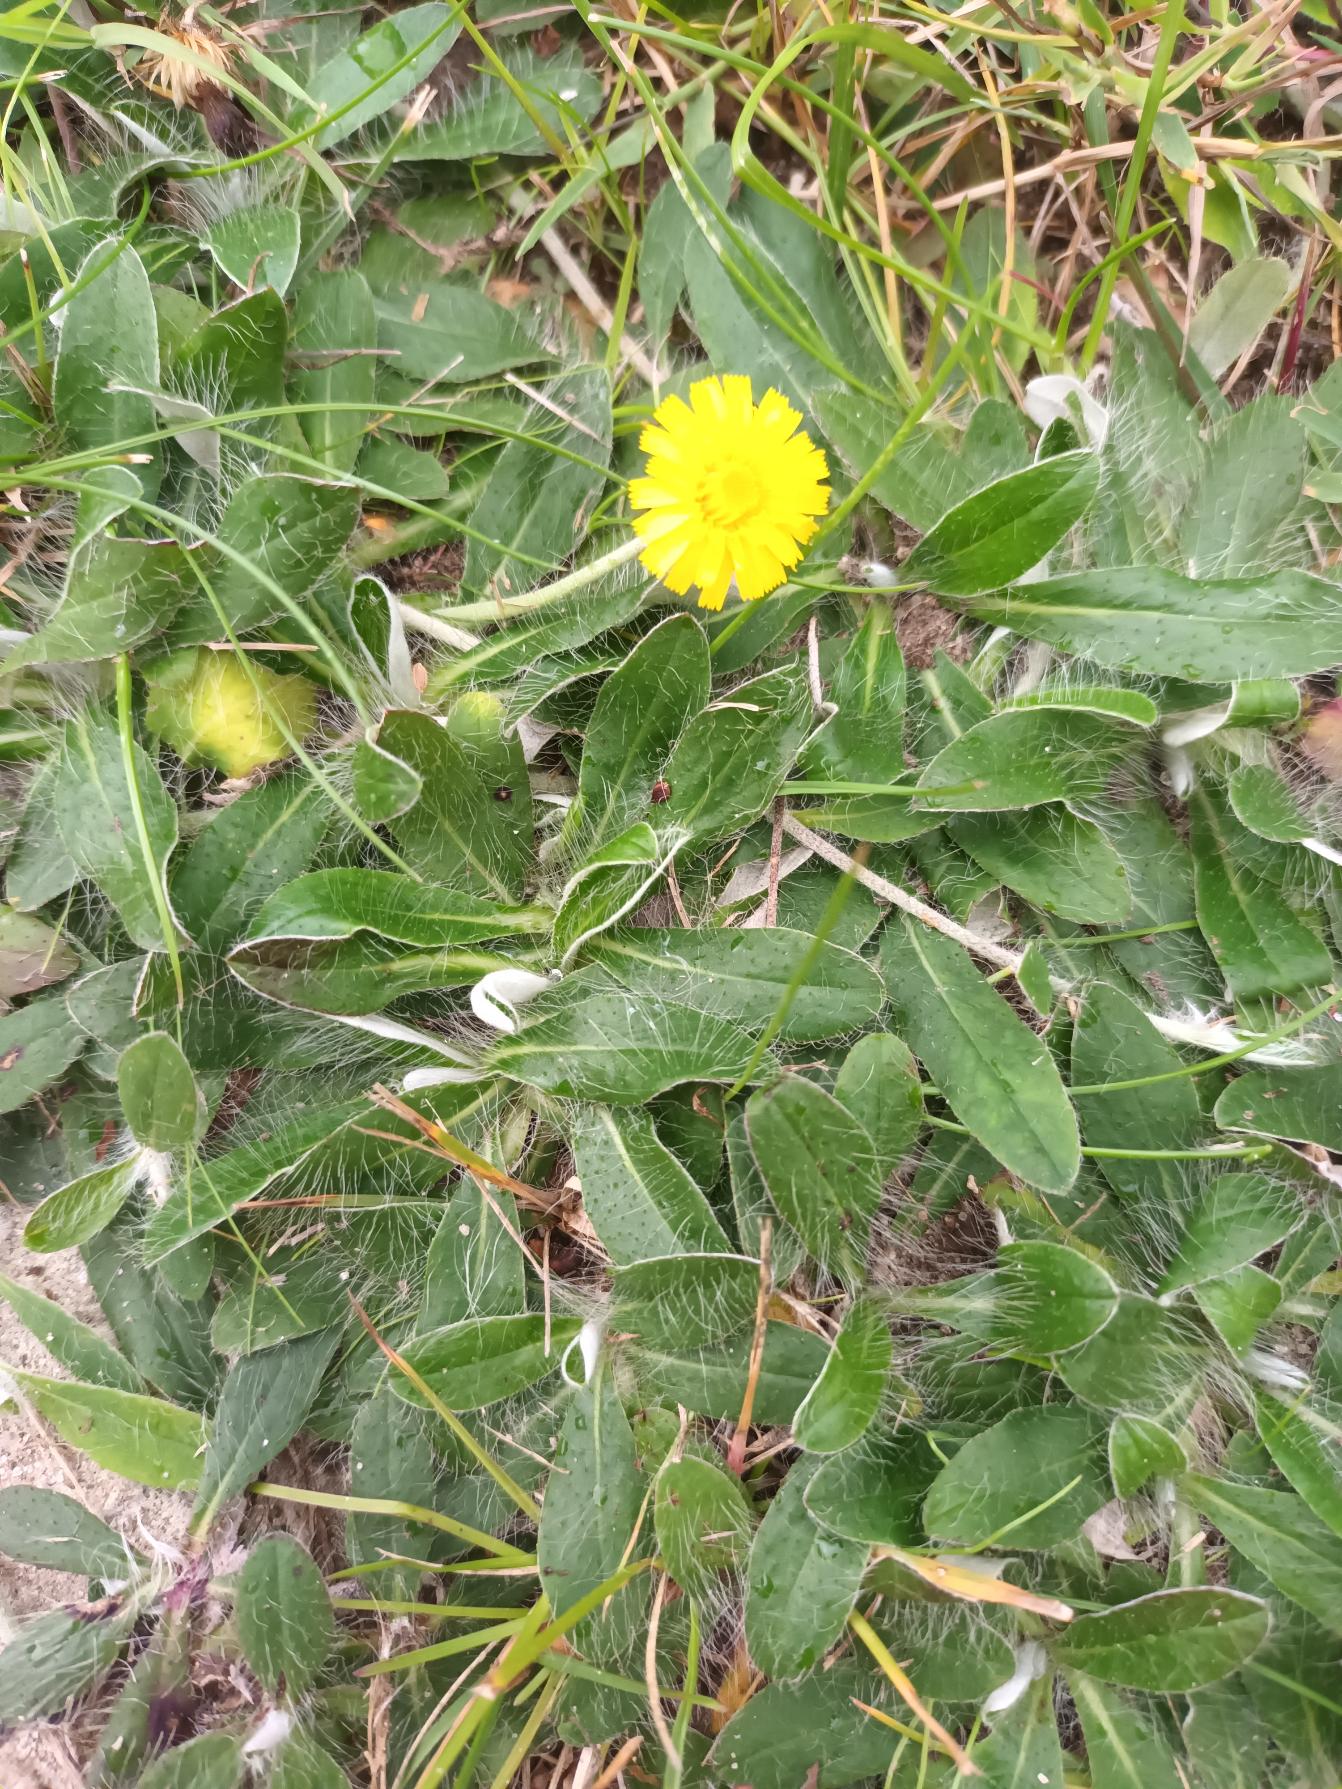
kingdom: Plantae
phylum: Tracheophyta
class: Magnoliopsida
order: Asterales
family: Asteraceae
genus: Pilosella
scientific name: Pilosella officinarum
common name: Håret høgeurt
